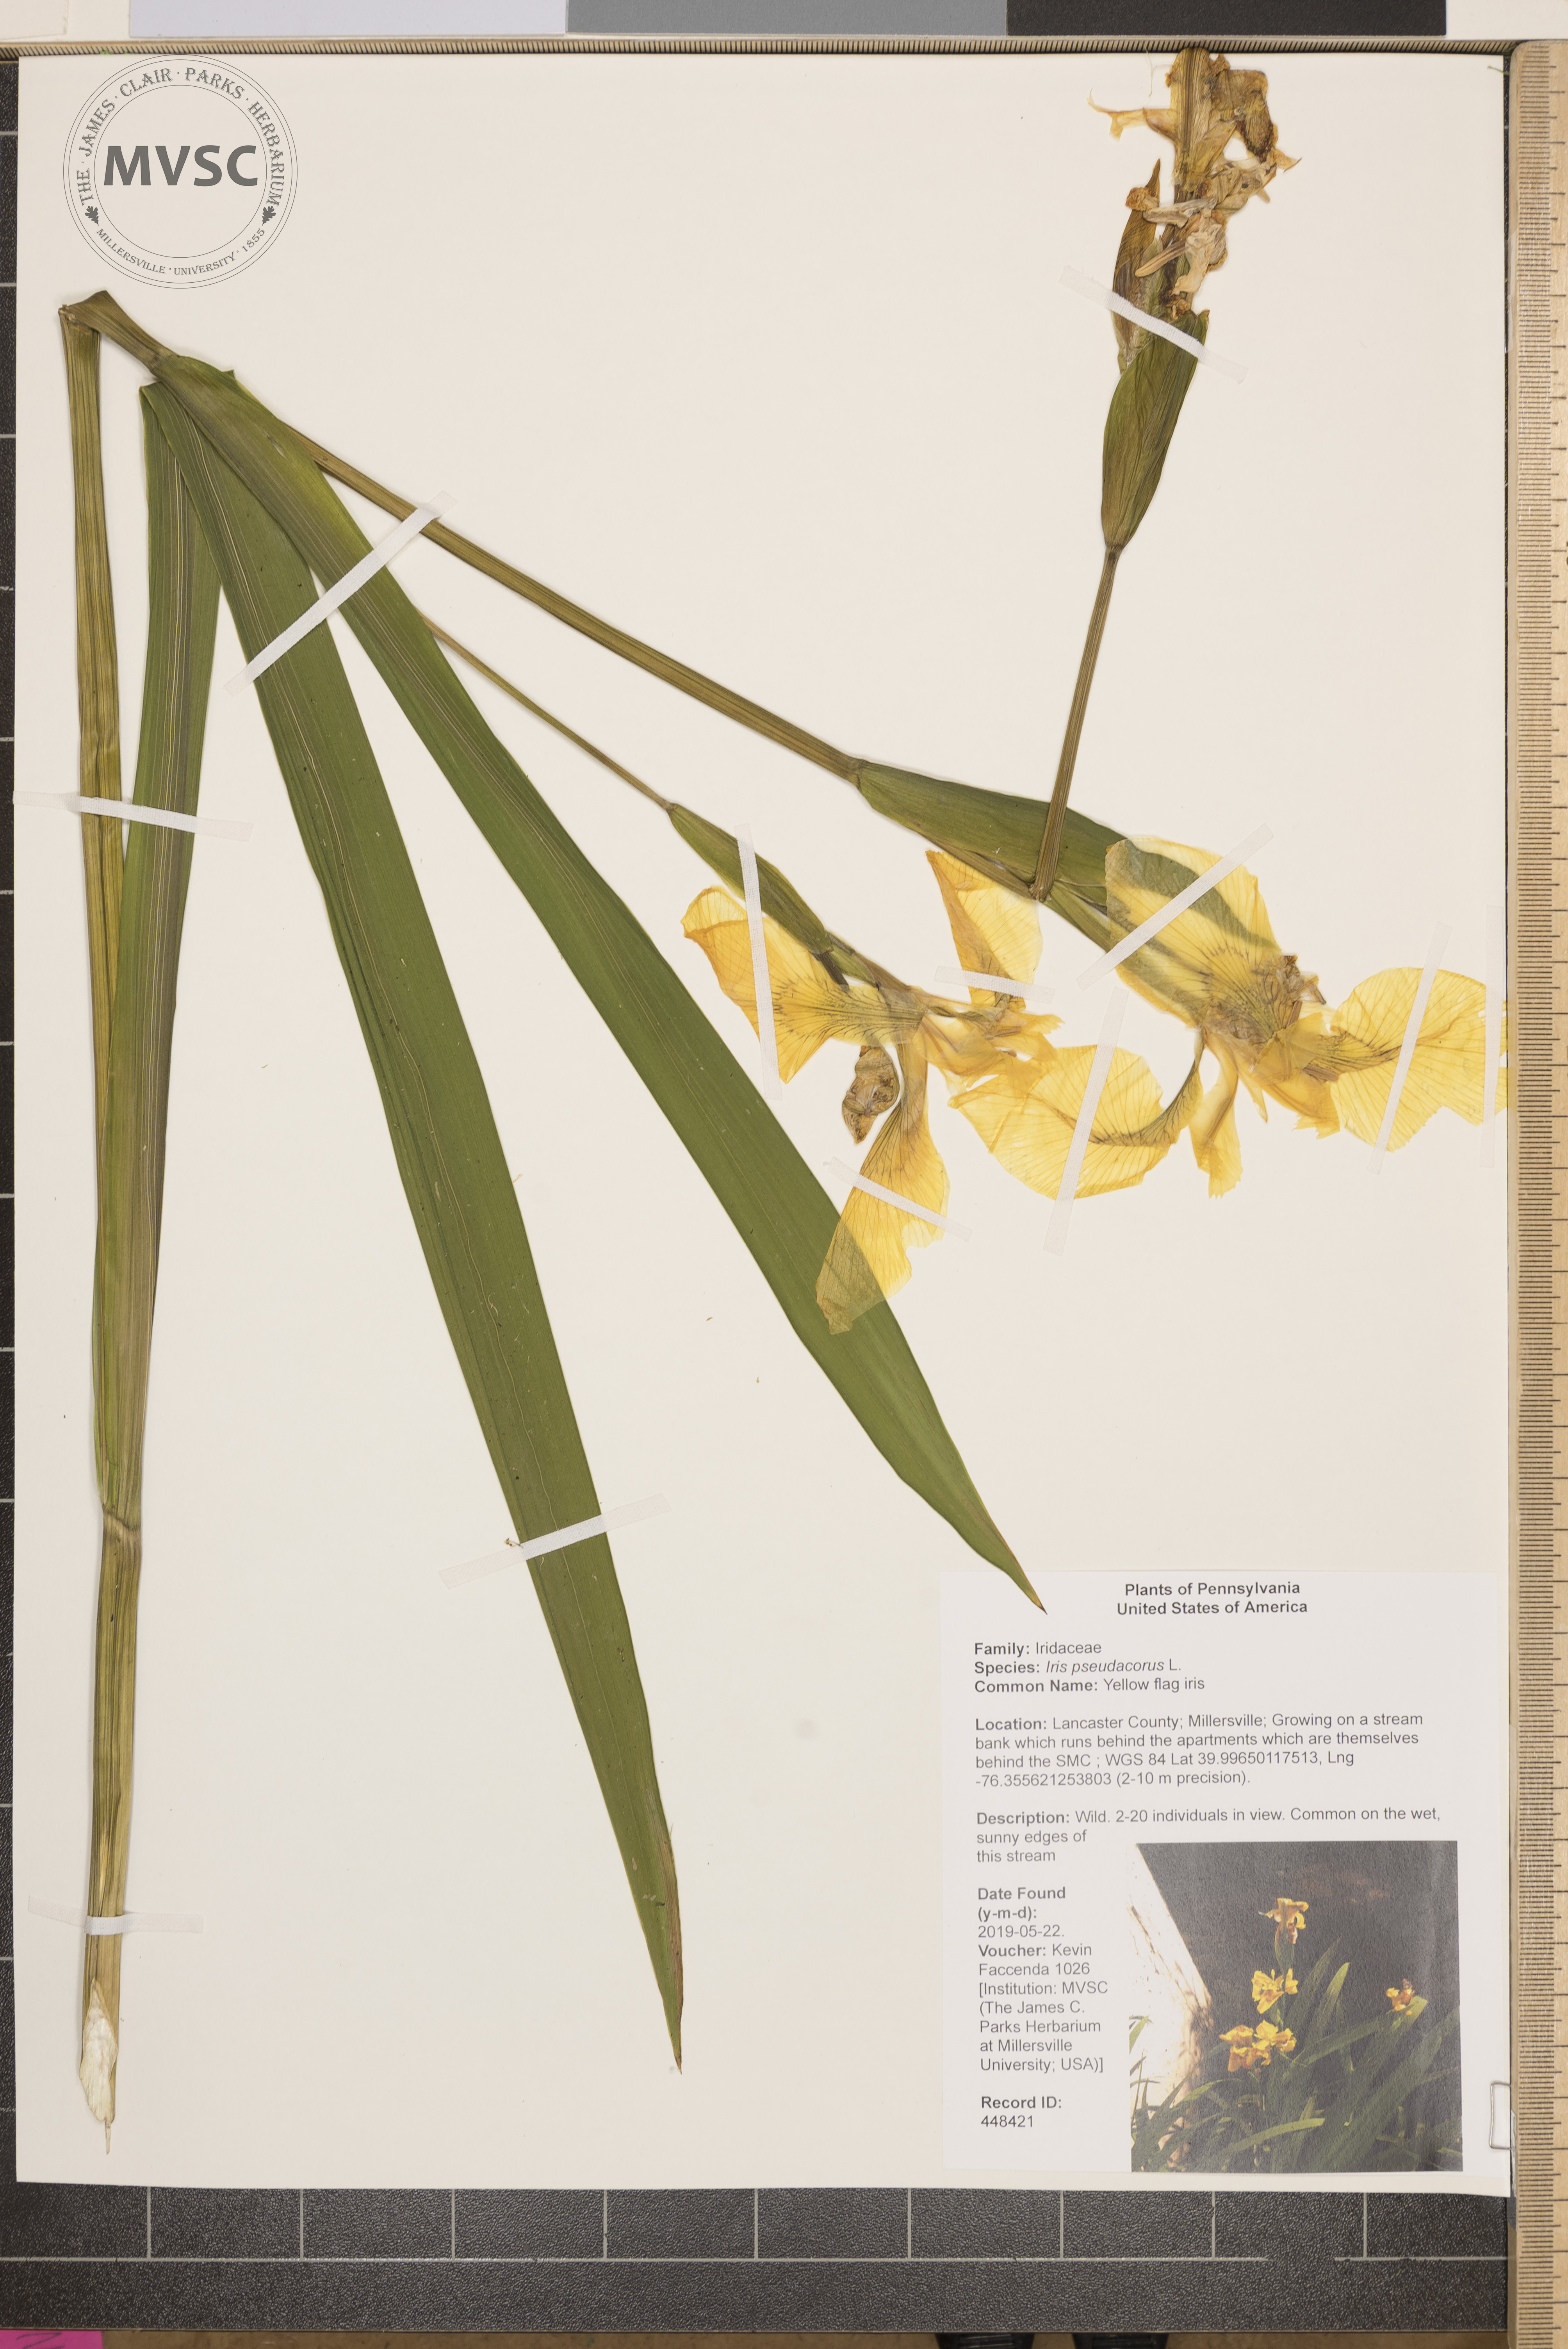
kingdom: Plantae
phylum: Tracheophyta
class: Liliopsida
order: Asparagales
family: Iridaceae
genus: Iris
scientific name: Iris pseudacorus
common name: Yellow flag iris
